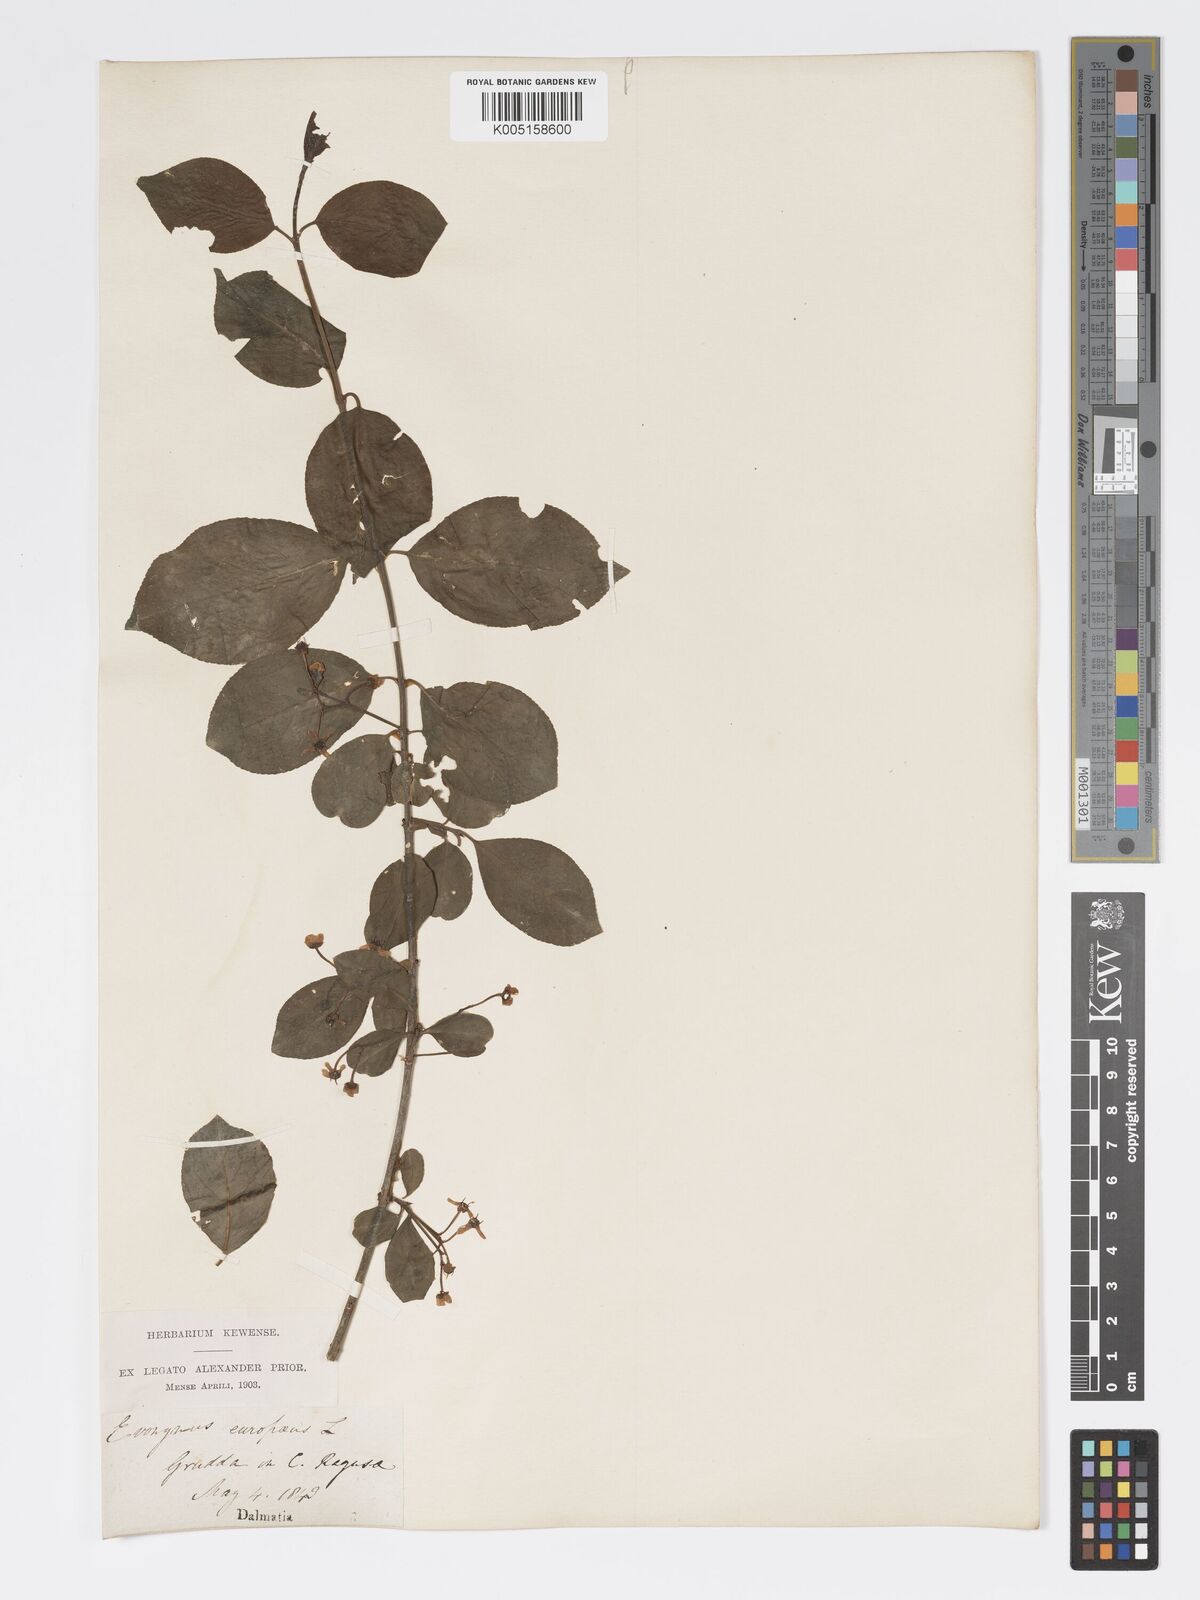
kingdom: Plantae
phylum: Tracheophyta
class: Magnoliopsida
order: Celastrales
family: Celastraceae
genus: Euonymus
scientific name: Euonymus europaeus
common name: Spindle
